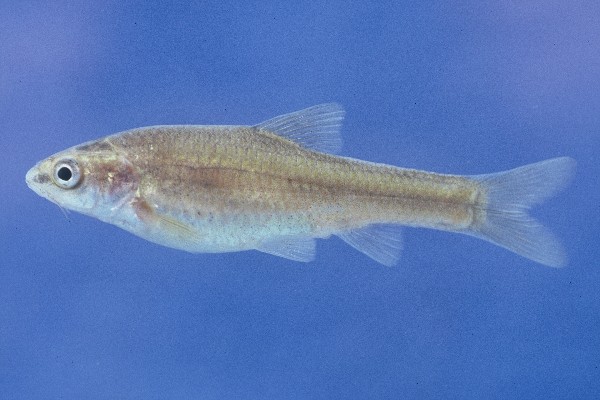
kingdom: Animalia
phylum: Chordata
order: Cypriniformes
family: Cyprinidae
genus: Enteromius
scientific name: Enteromius amatolicus
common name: Amatola barb
